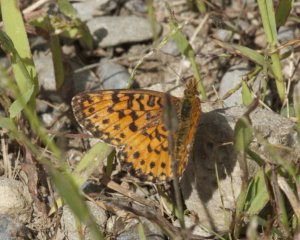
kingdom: Animalia
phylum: Arthropoda
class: Insecta
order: Lepidoptera
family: Nymphalidae
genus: Boloria
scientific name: Boloria selene
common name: Silver-bordered Fritillary
